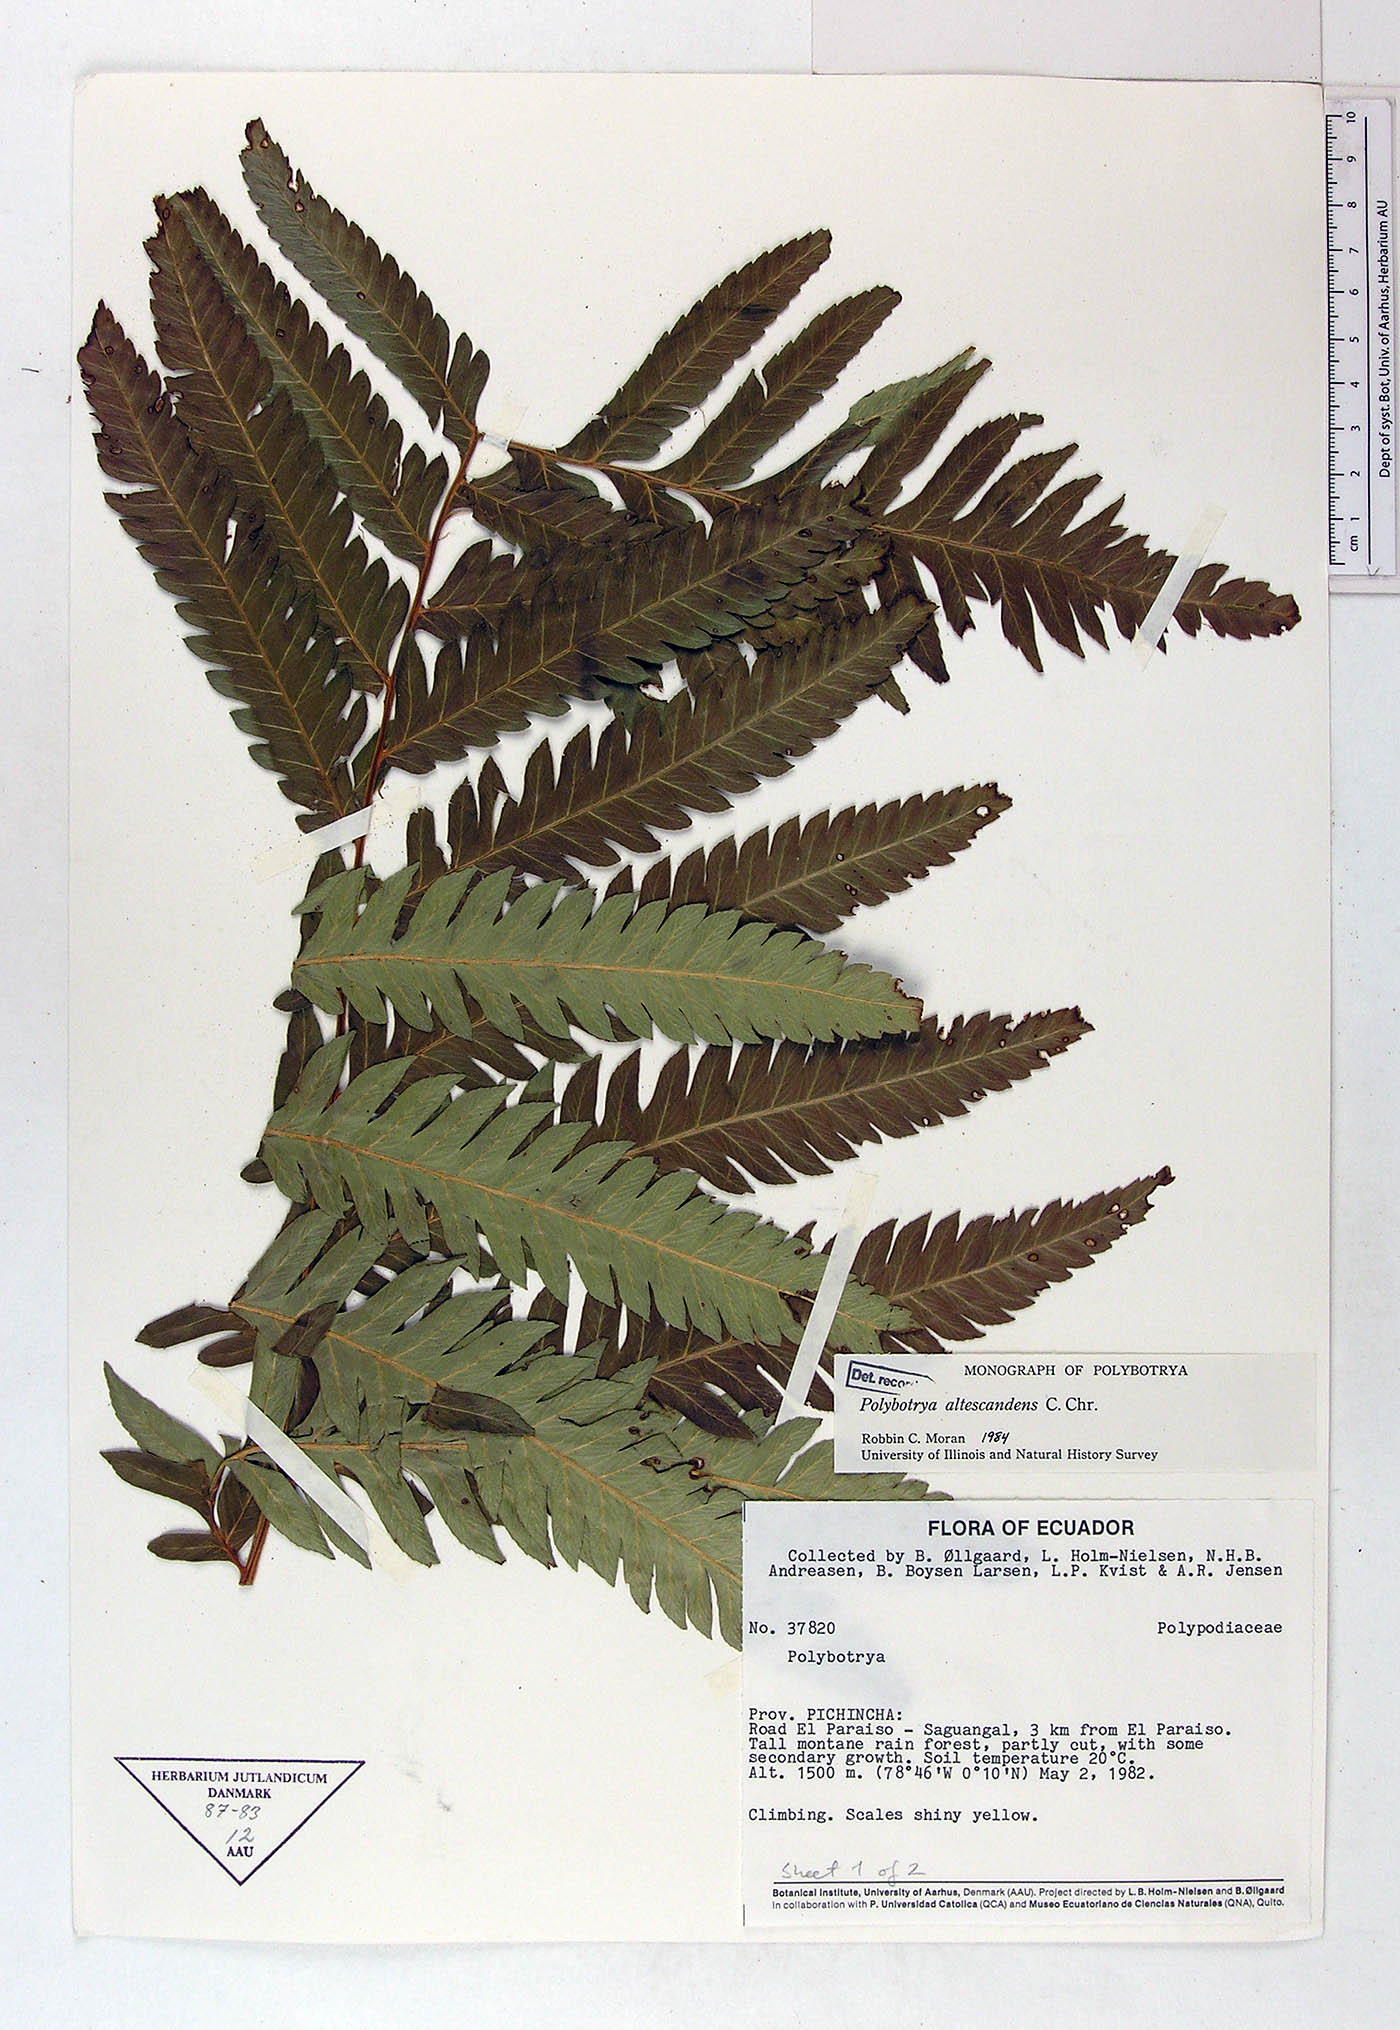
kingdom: Plantae
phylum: Tracheophyta
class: Polypodiopsida
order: Polypodiales
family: Dryopteridaceae
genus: Polybotrya
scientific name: Polybotrya altescandens
